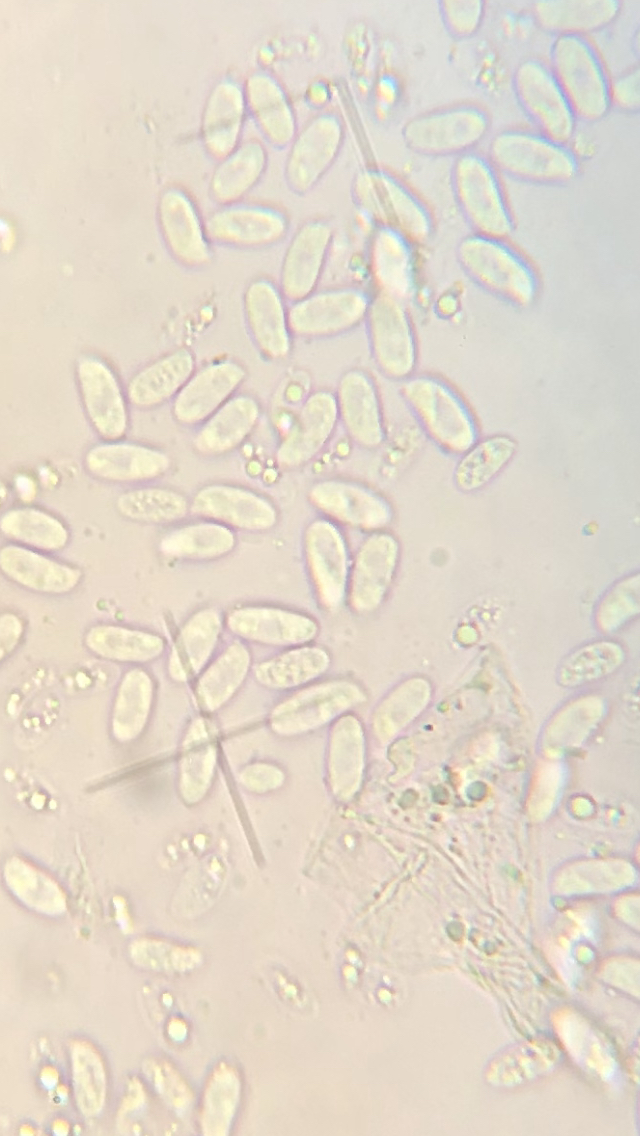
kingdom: Fungi
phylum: Basidiomycota
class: Agaricomycetes
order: Agaricales
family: Physalacriaceae
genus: Flammulina
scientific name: Flammulina velutipes
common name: gul fløjlsfod
